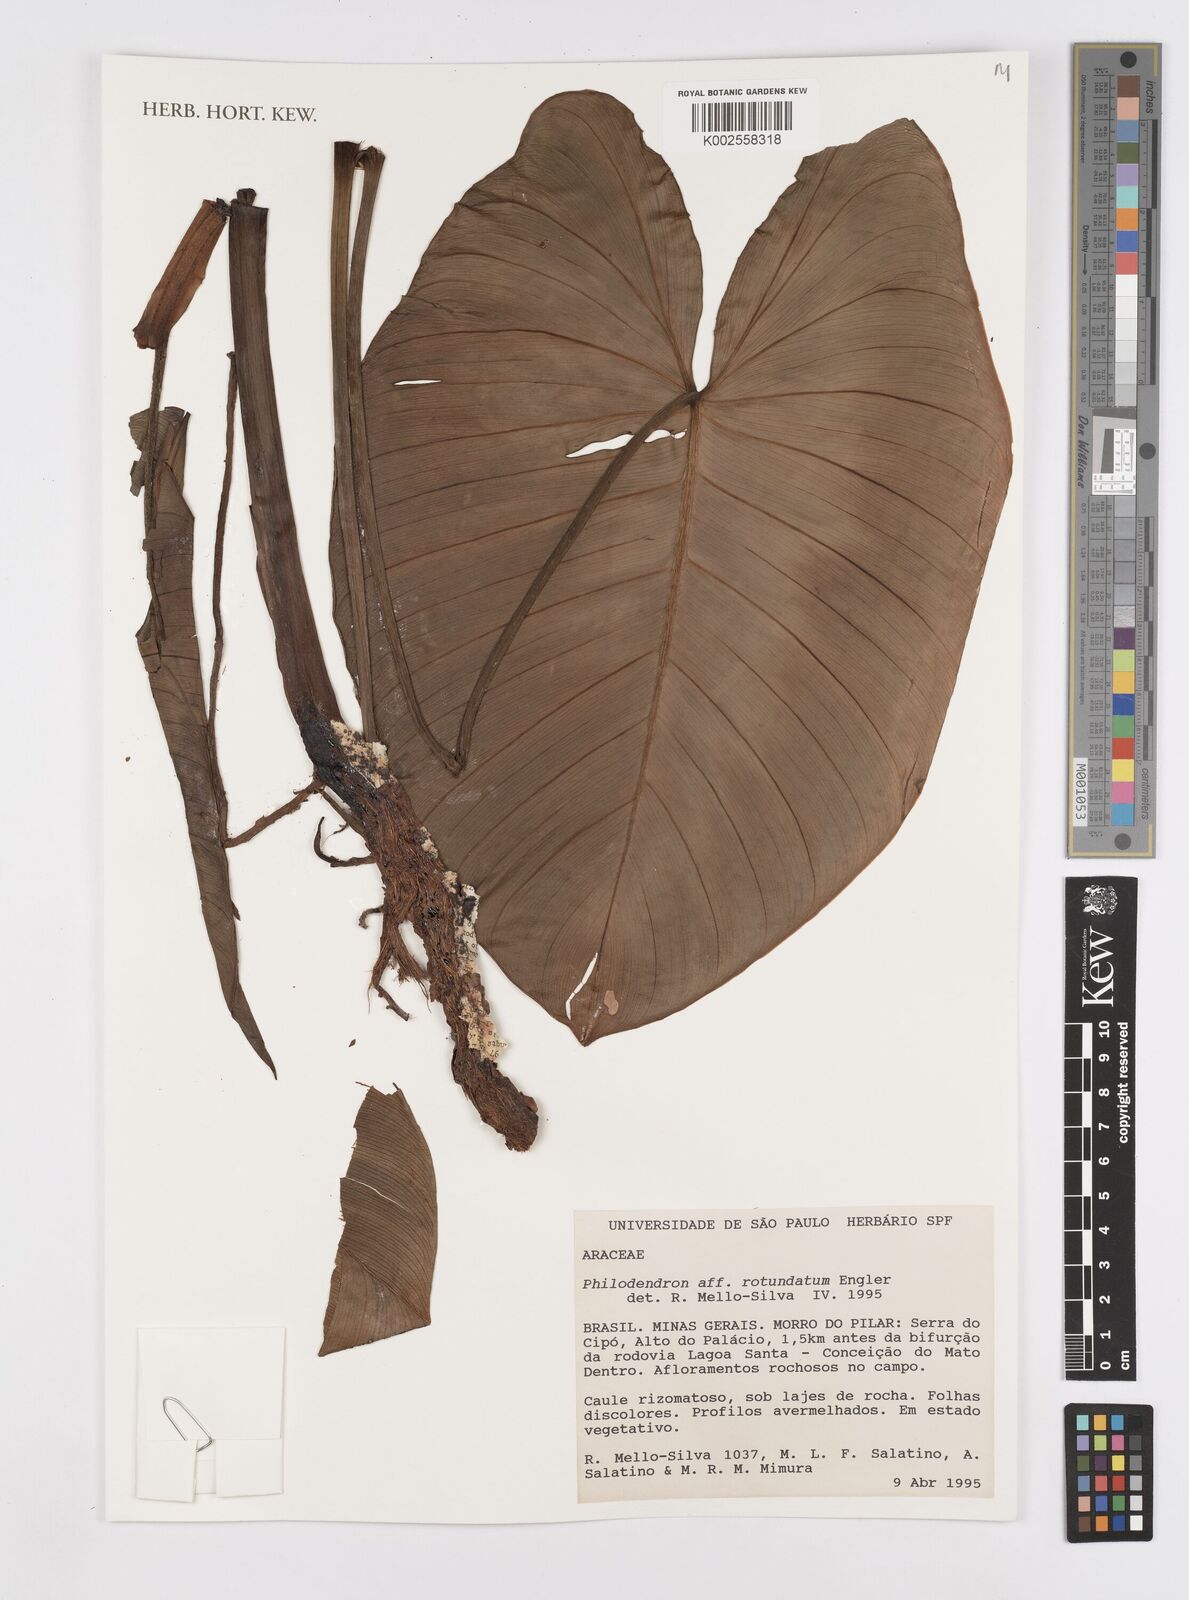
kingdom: Plantae
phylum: Tracheophyta
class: Liliopsida
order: Alismatales
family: Araceae
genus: Philodendron
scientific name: Philodendron rotundatum
